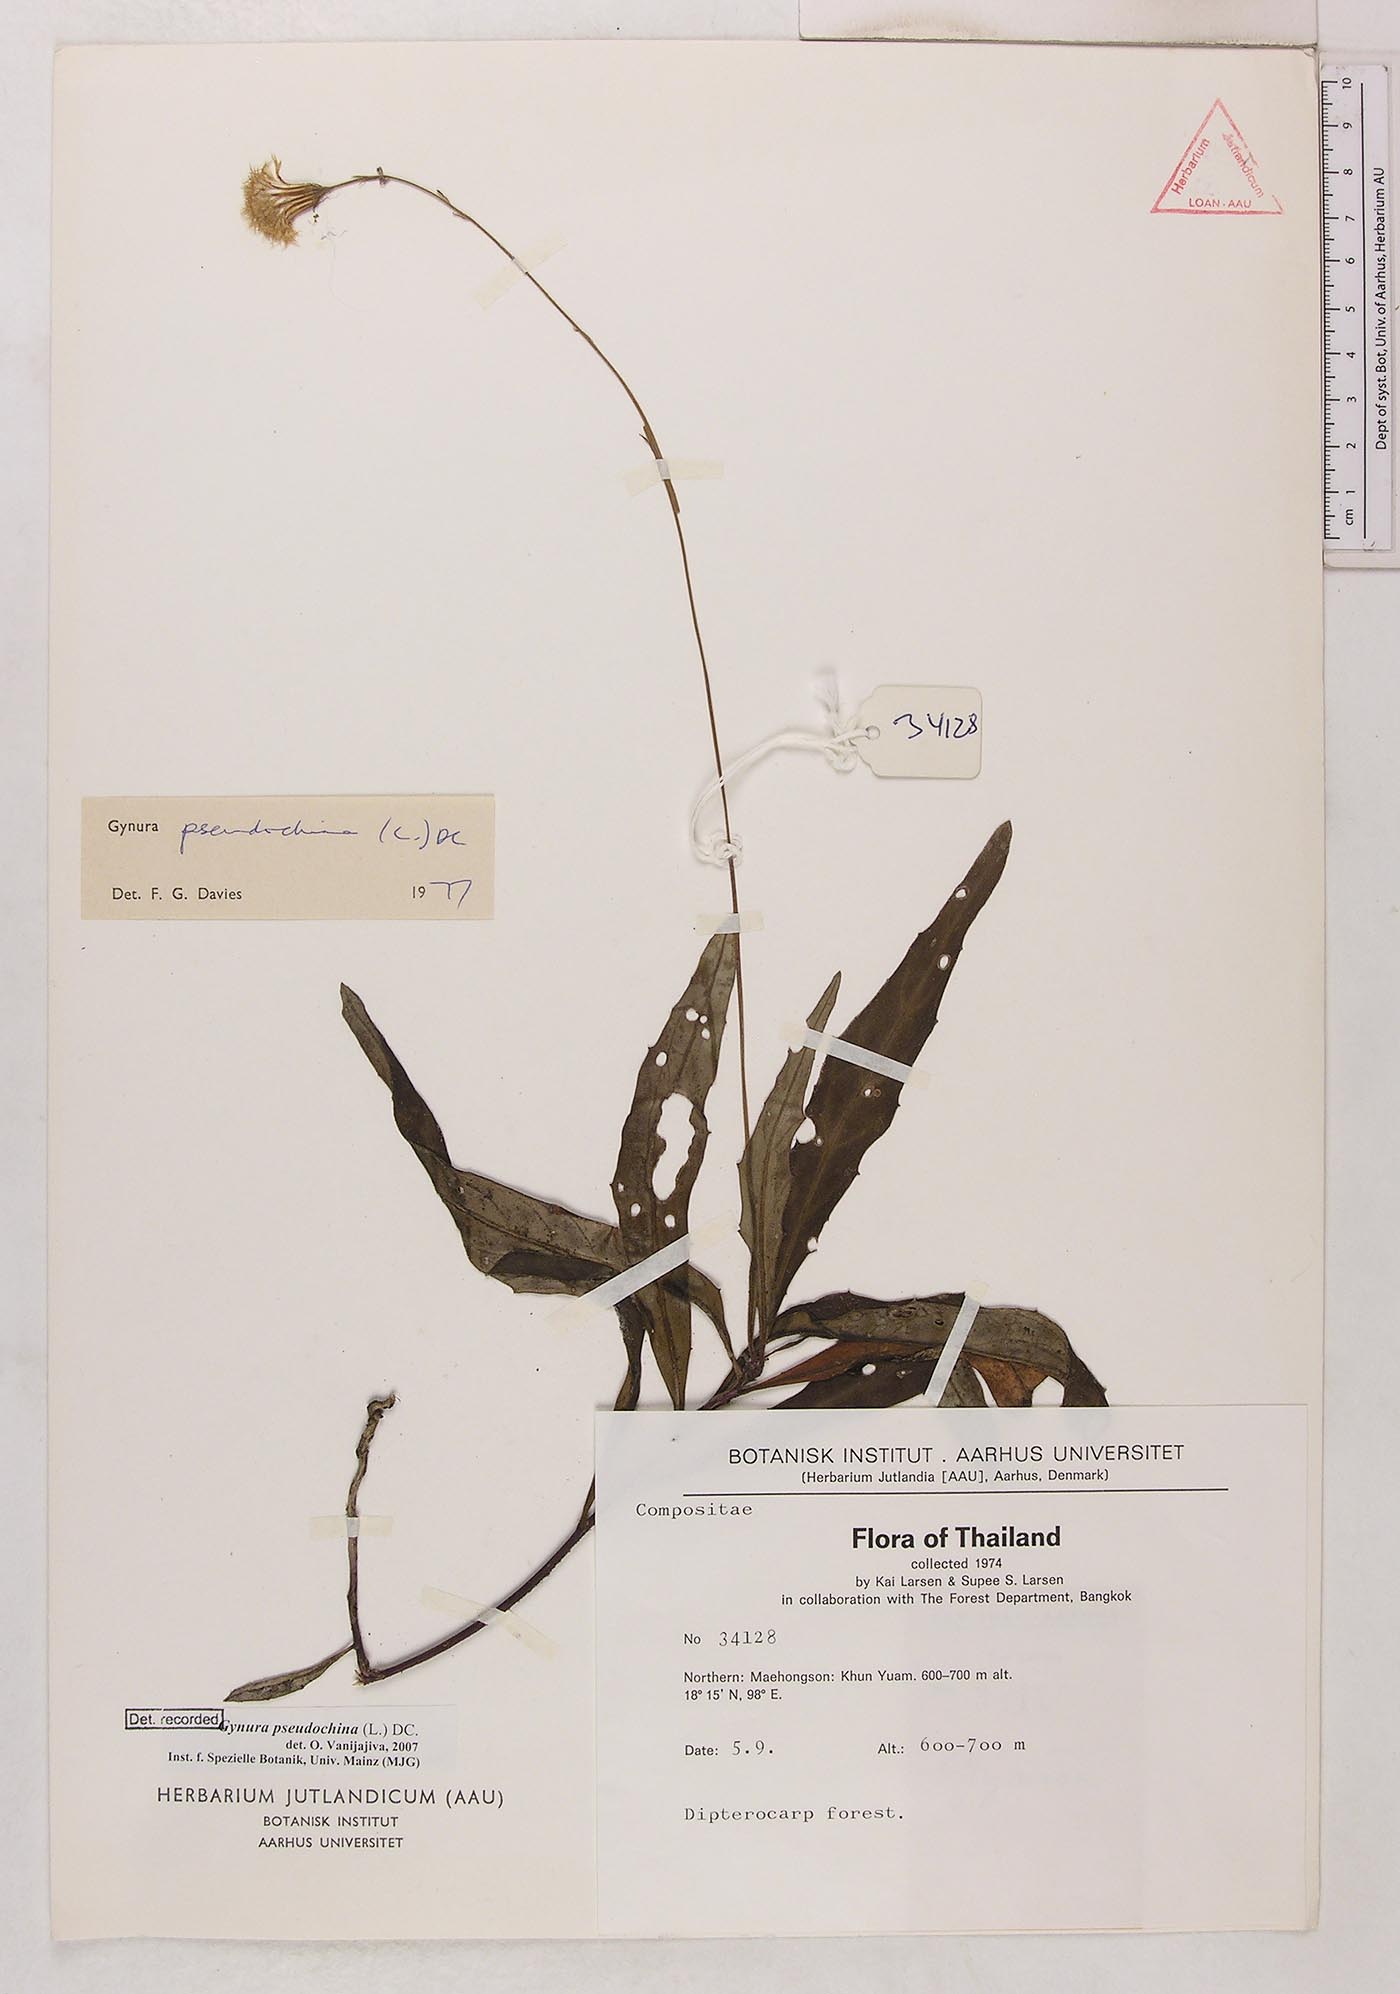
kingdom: Plantae
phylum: Tracheophyta
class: Magnoliopsida
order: Asterales
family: Asteraceae
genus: Gynura
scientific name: Gynura pseudochina
